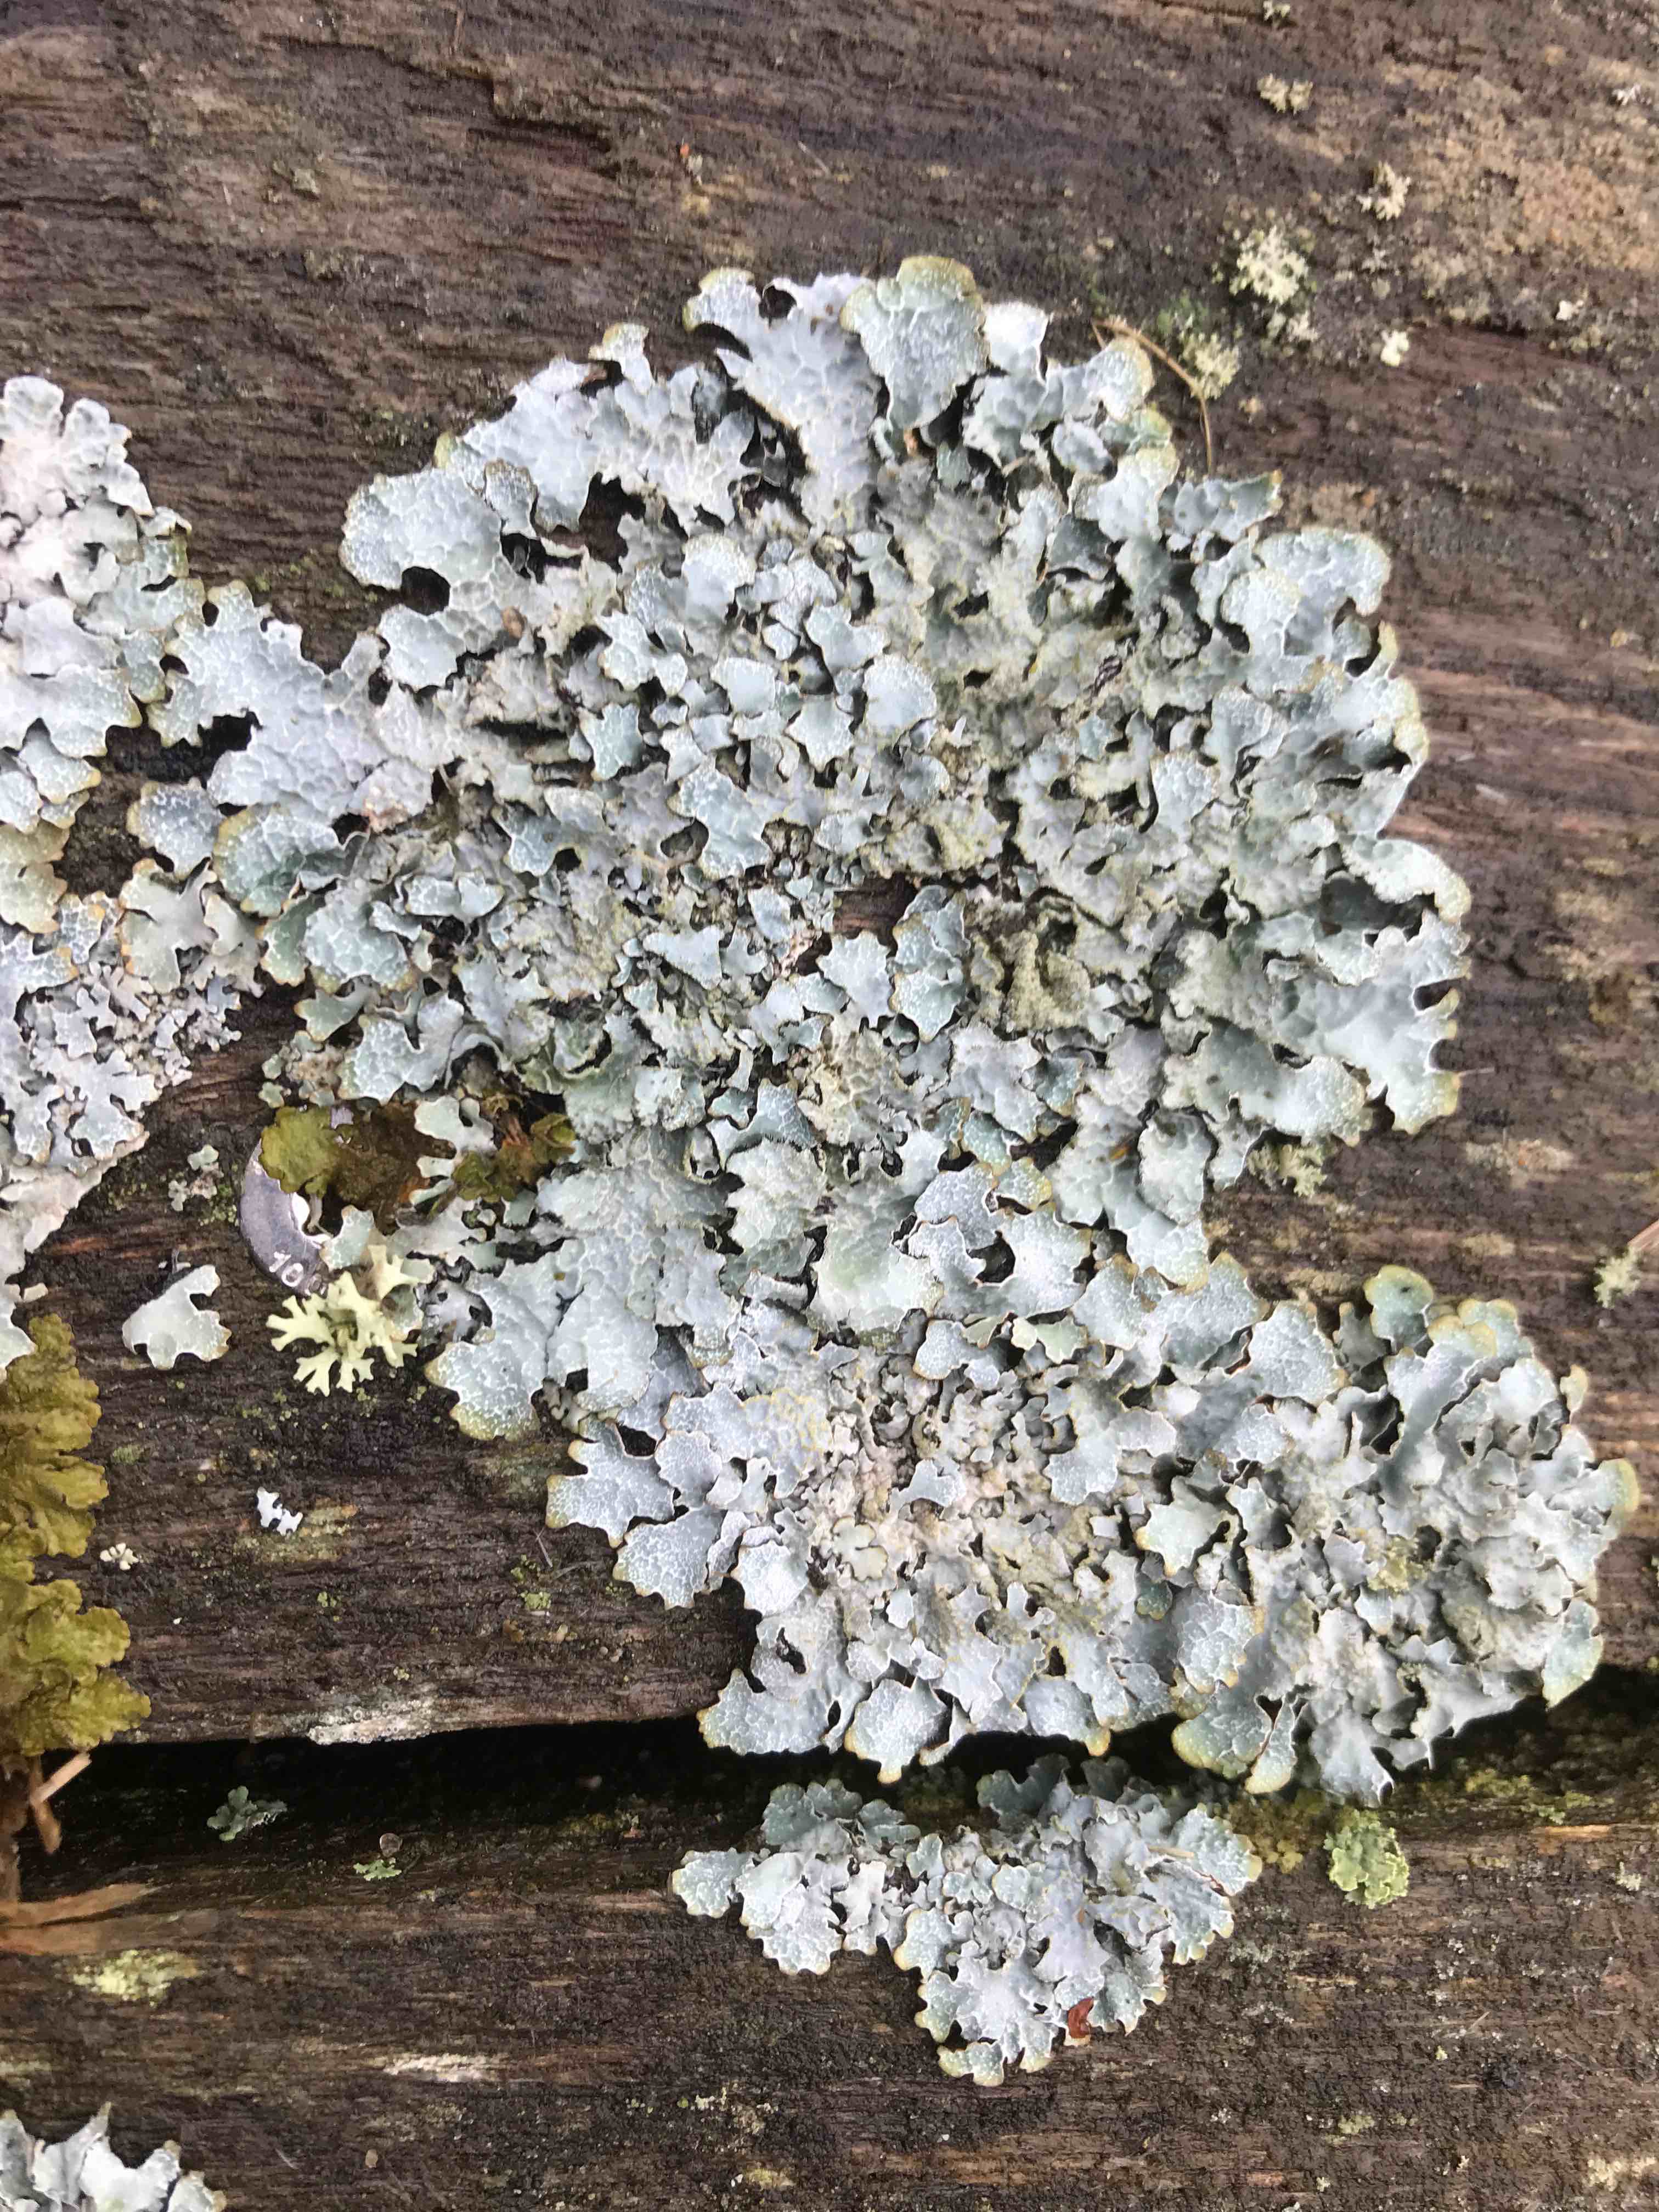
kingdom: Fungi
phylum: Ascomycota
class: Lecanoromycetes
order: Lecanorales
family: Parmeliaceae
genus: Parmelia
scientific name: Parmelia sulcata
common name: rynket skållav
